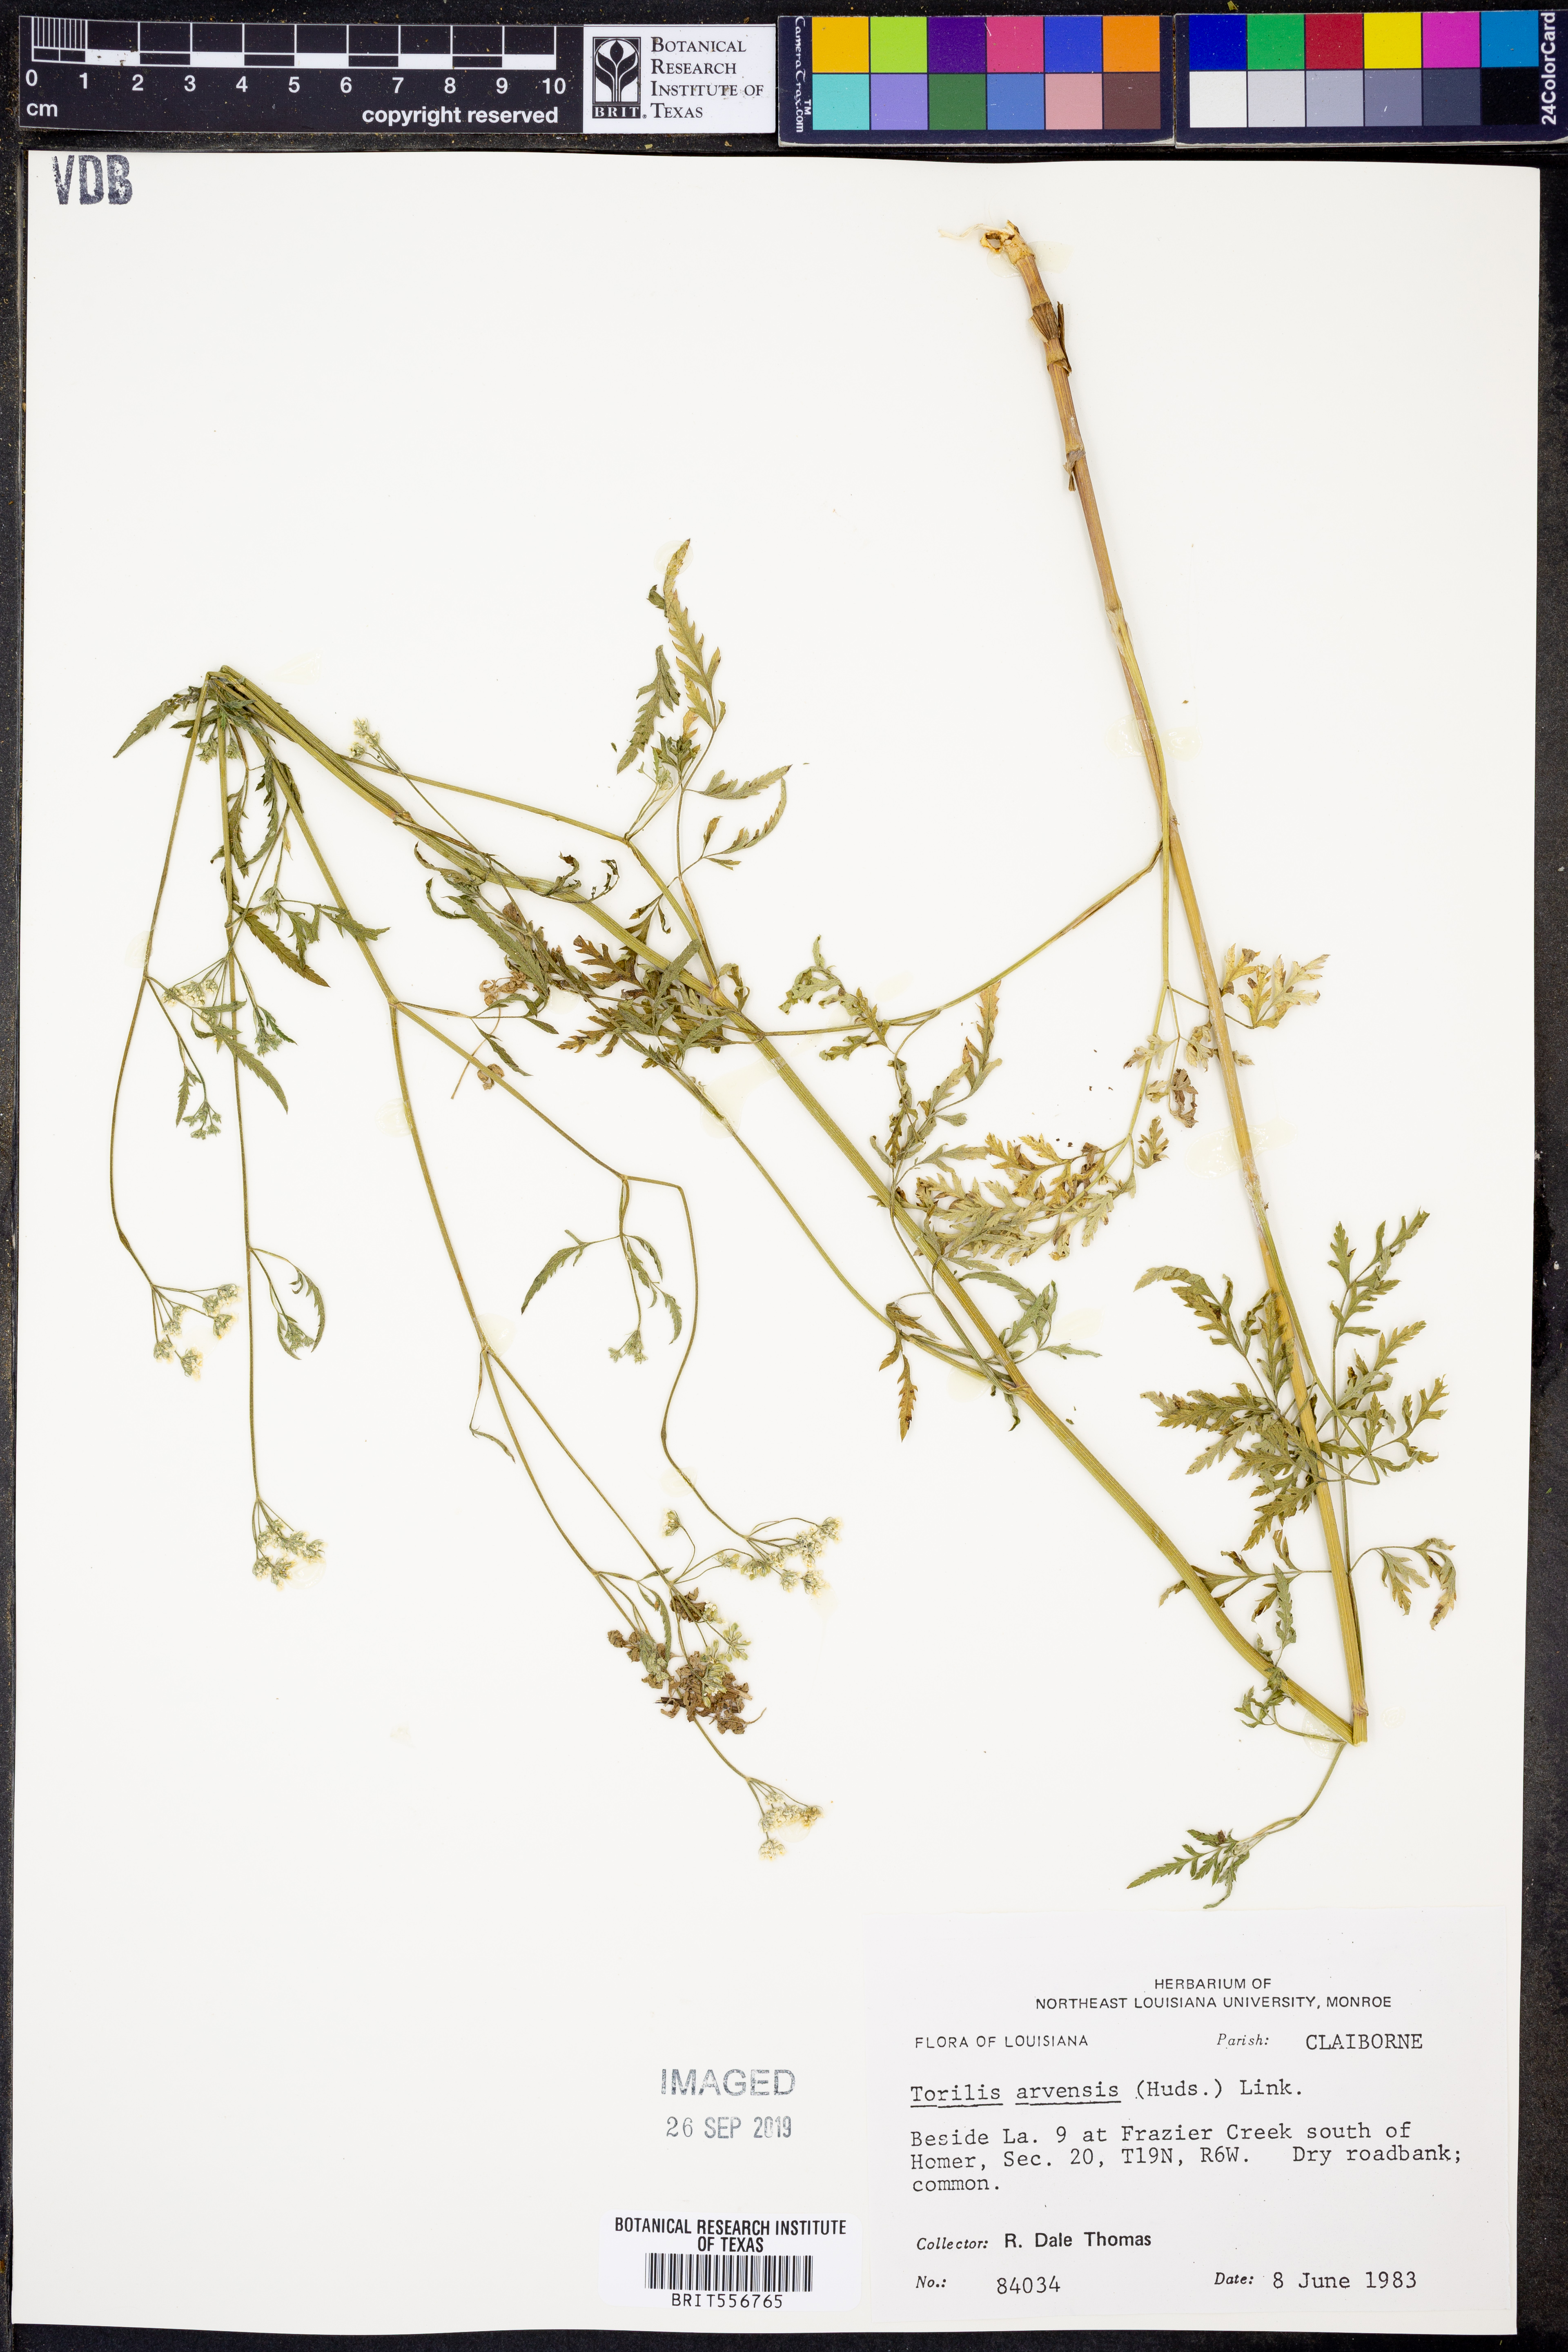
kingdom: Plantae
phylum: Tracheophyta
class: Magnoliopsida
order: Apiales
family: Apiaceae
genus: Torilis
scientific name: Torilis arvensis
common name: Spreading hedge-parsley
